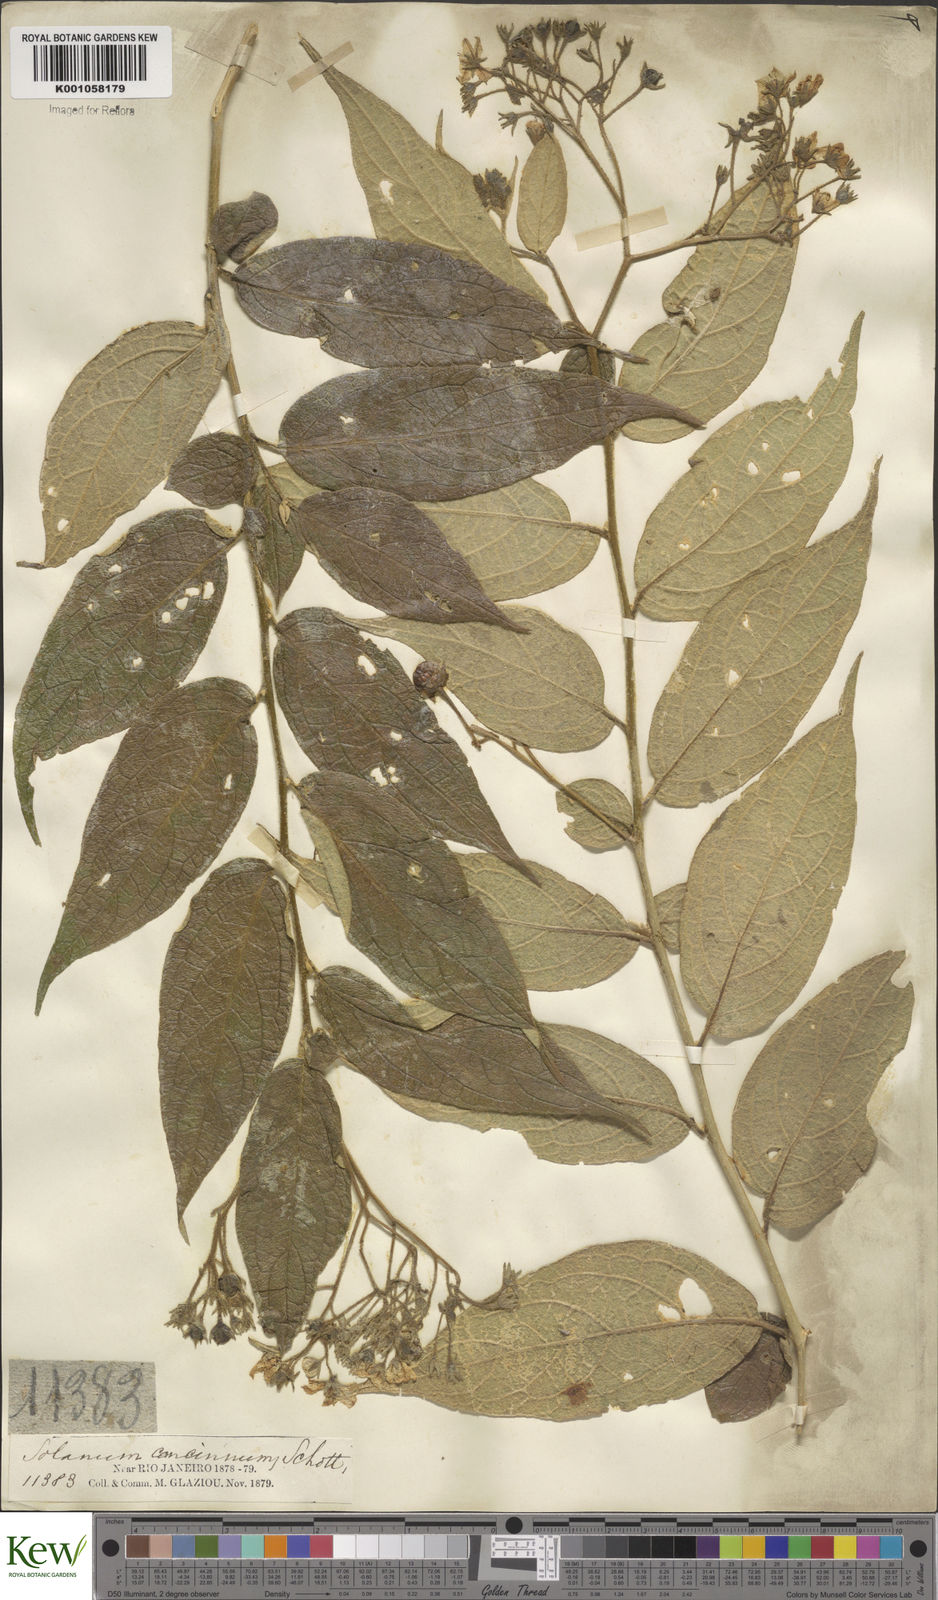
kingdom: Plantae
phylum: Tracheophyta
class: Magnoliopsida
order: Solanales
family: Solanaceae
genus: Solanum
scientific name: Solanum concinnum
